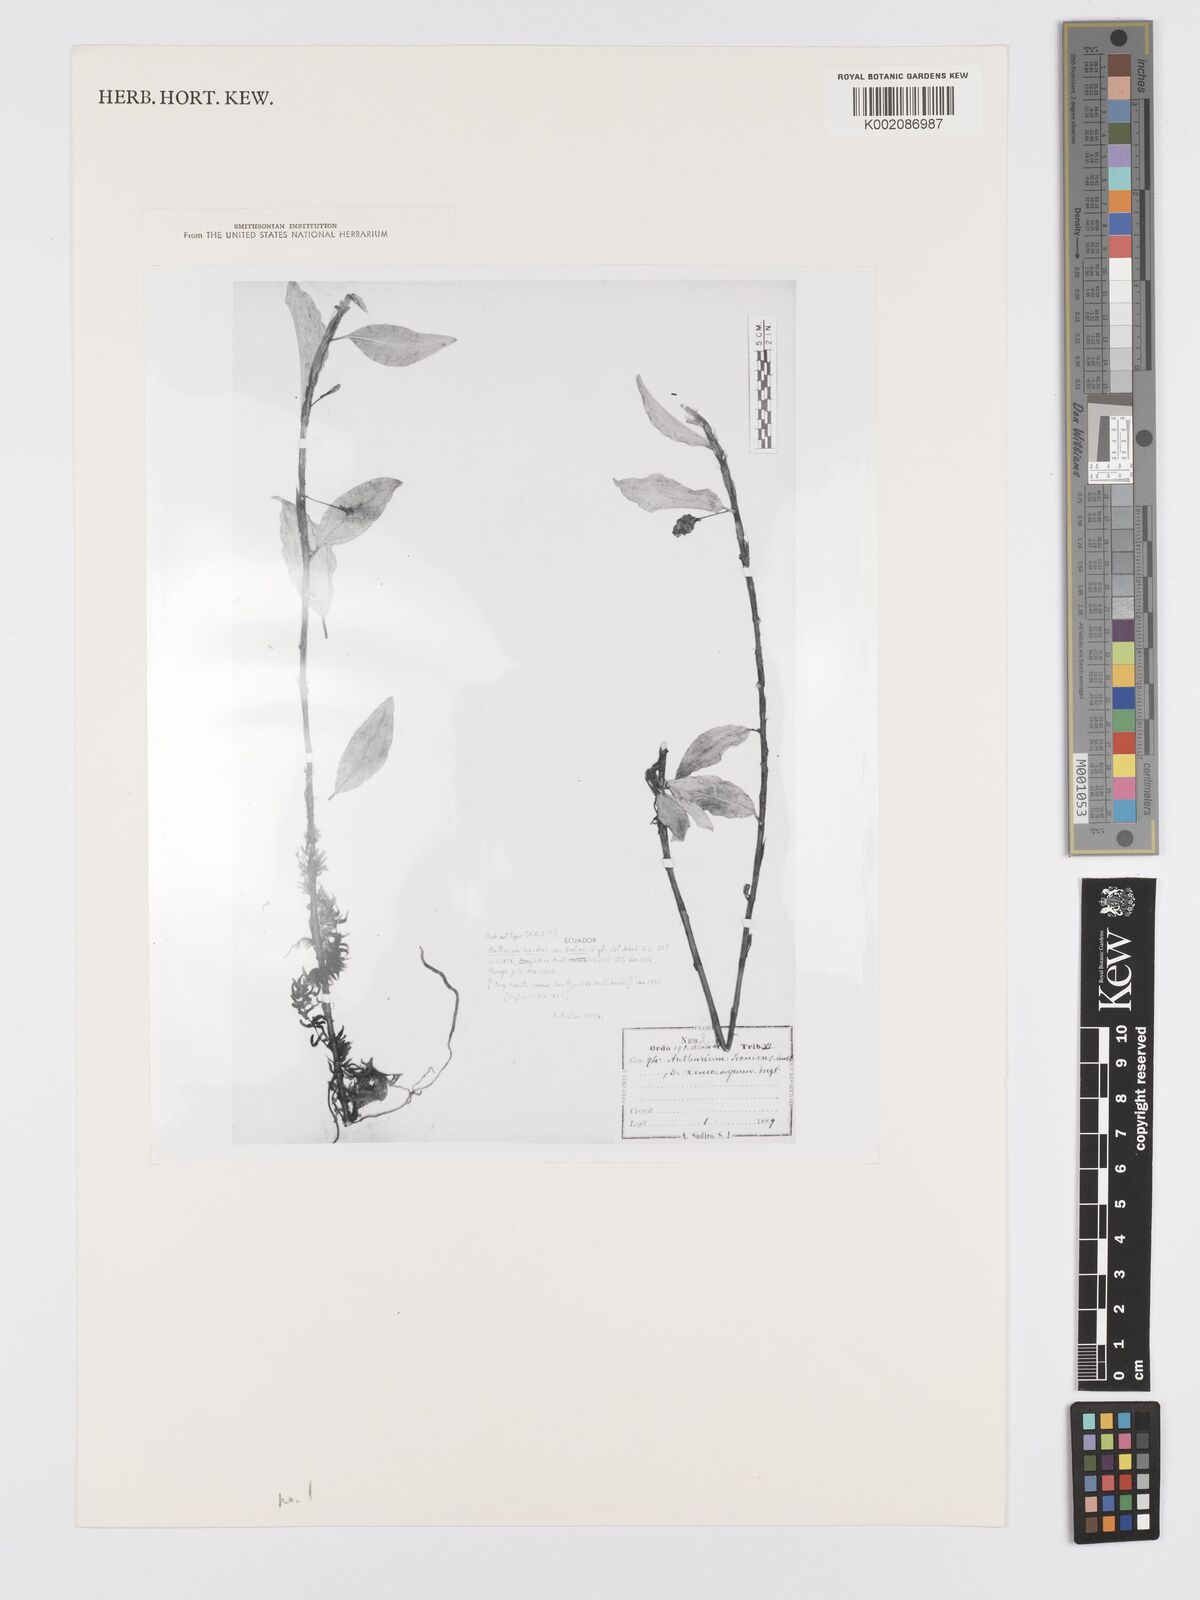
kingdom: Plantae
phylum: Tracheophyta
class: Liliopsida
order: Alismatales
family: Araceae
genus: Anthurium
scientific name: Anthurium scandens
